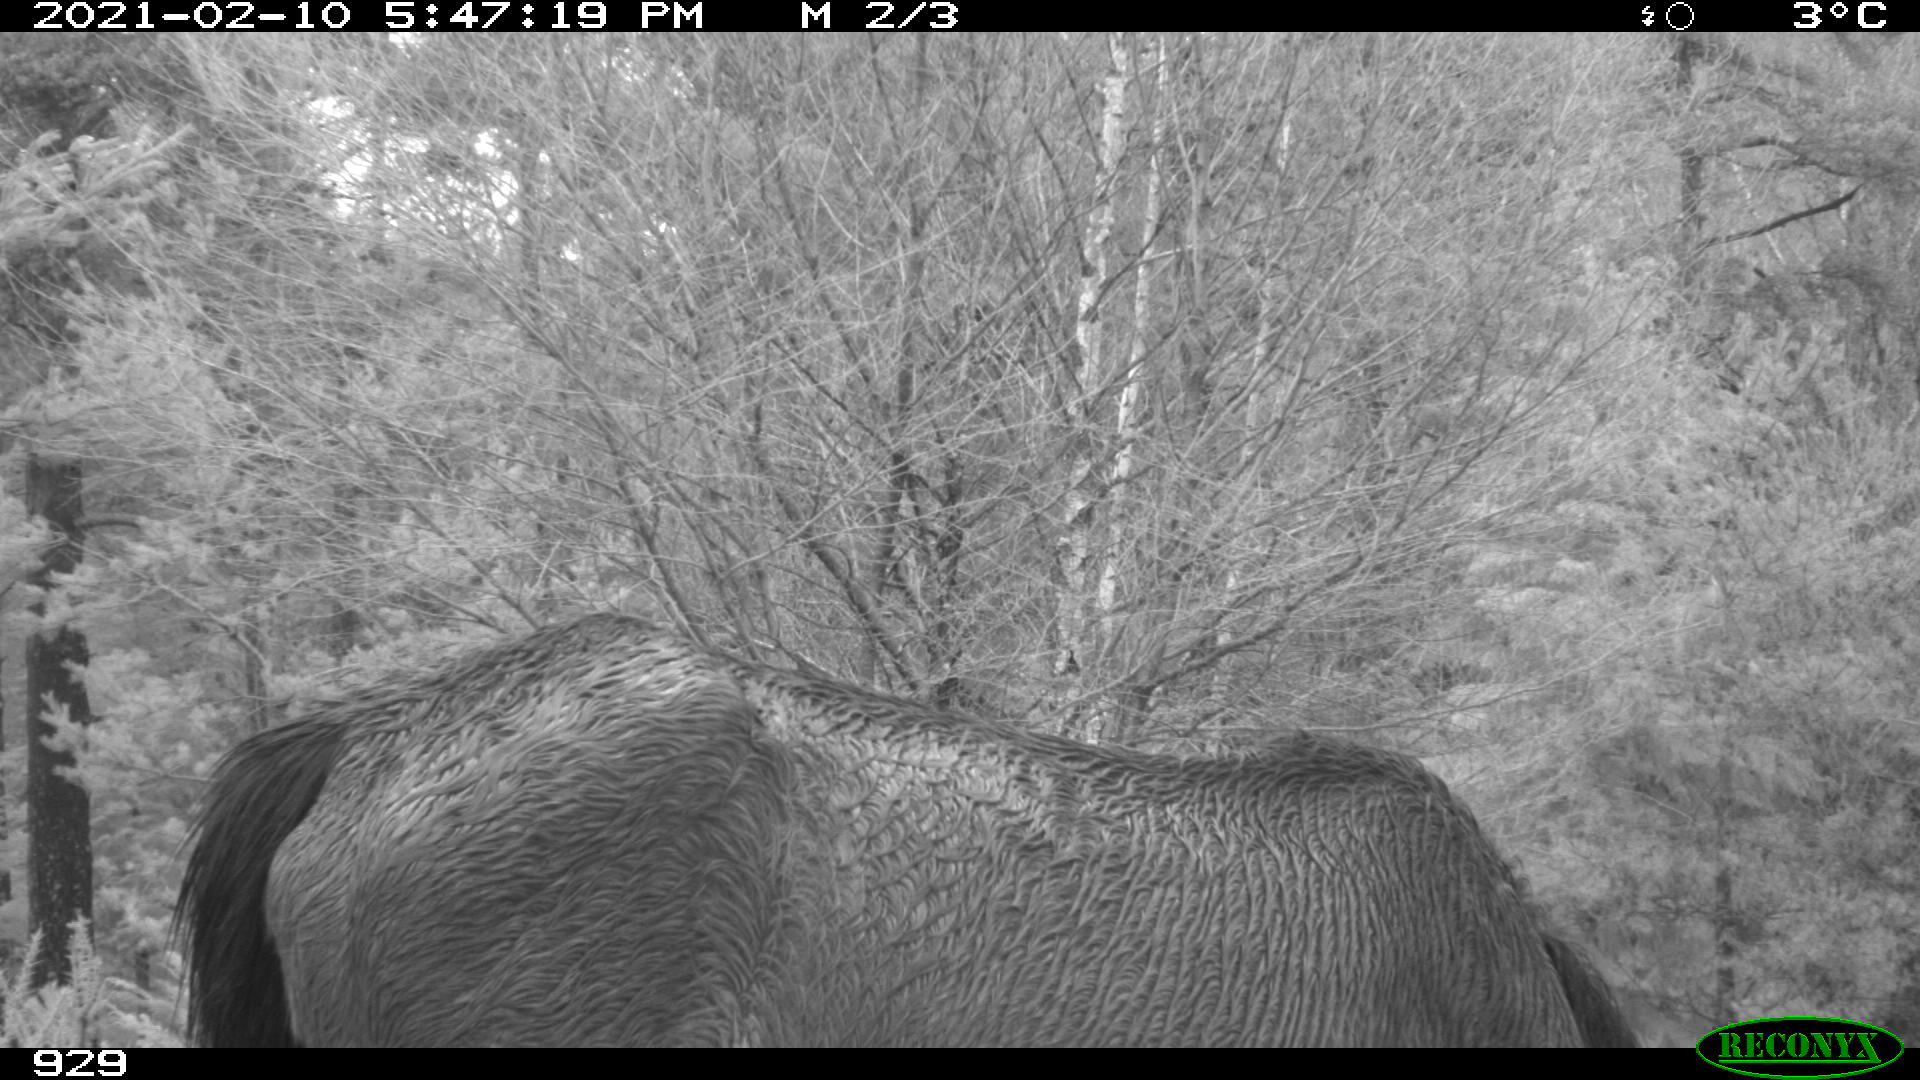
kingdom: Animalia
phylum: Chordata
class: Mammalia
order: Perissodactyla
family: Equidae
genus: Equus
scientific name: Equus caballus
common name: Horse
